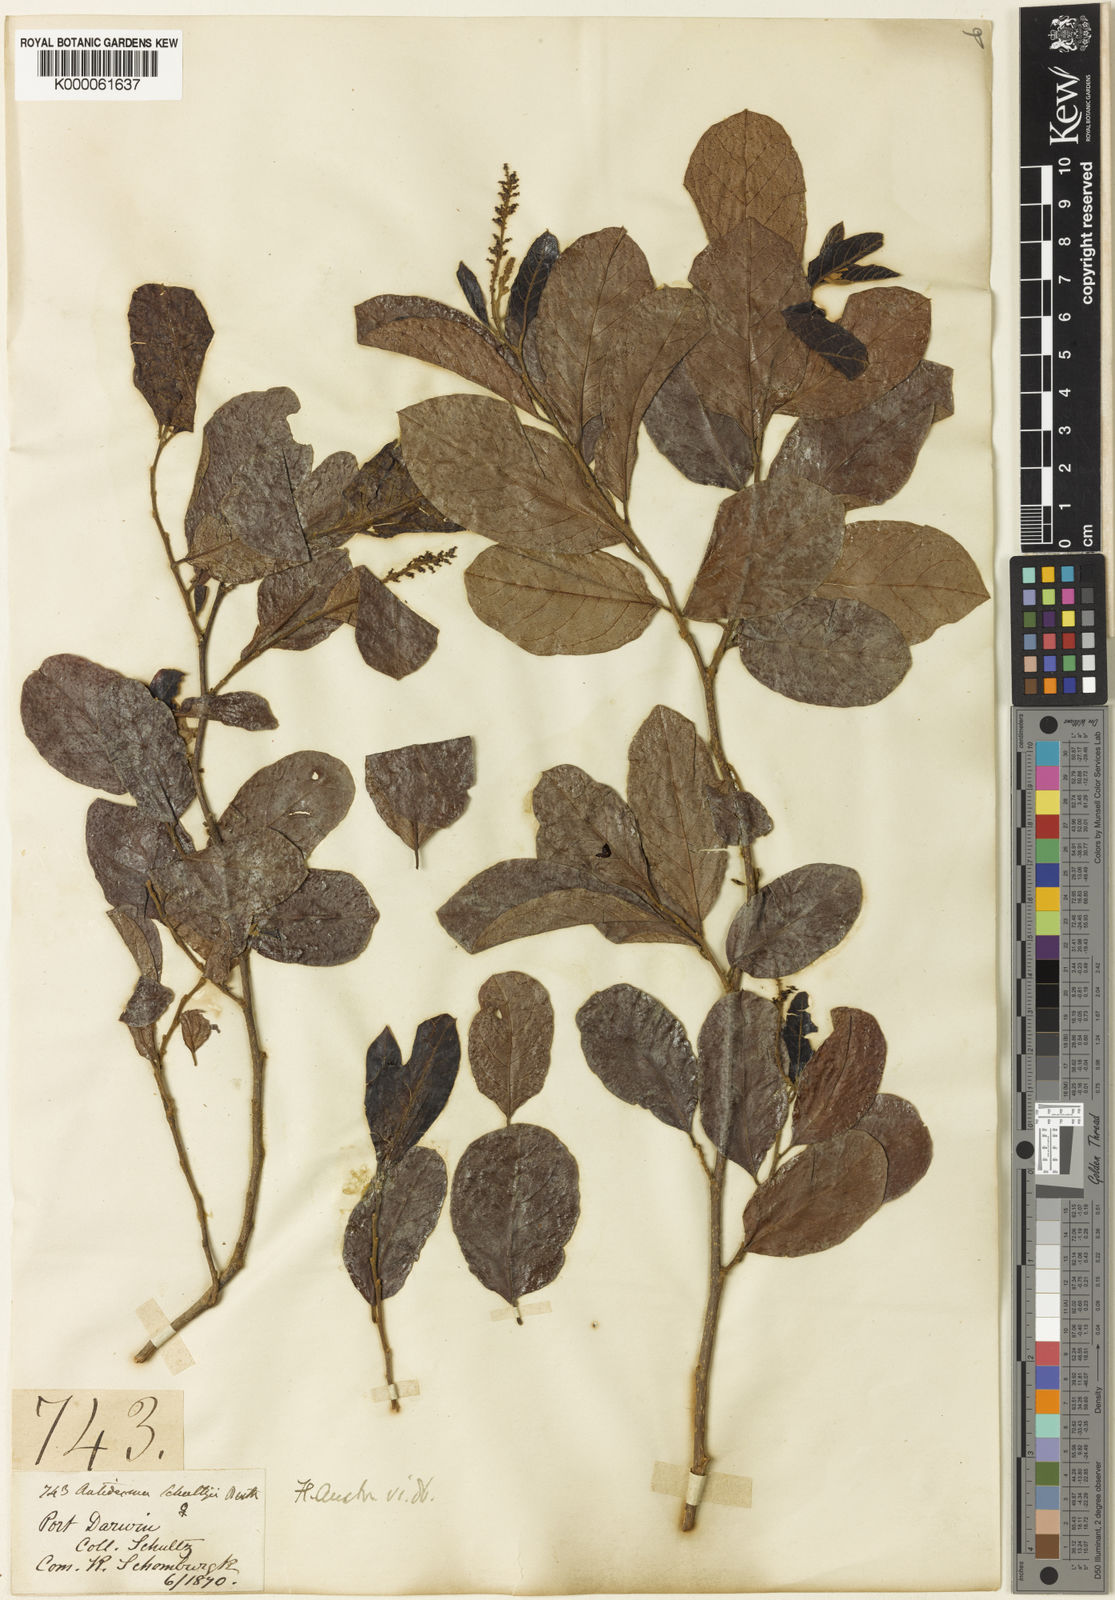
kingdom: Plantae
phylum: Tracheophyta
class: Magnoliopsida
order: Malpighiales
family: Phyllanthaceae
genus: Antidesma
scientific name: Antidesma ghaesembilla
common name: Black currant-tree
